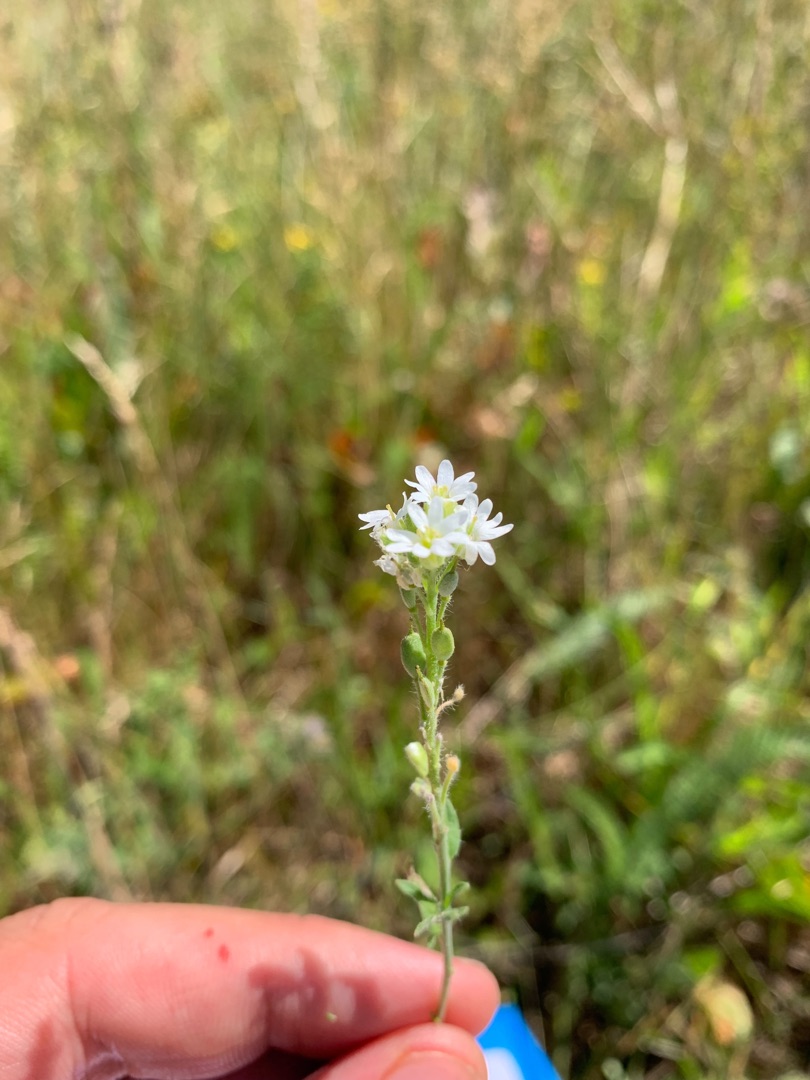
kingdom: Plantae
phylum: Tracheophyta
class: Magnoliopsida
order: Brassicales
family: Brassicaceae
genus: Berteroa
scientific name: Berteroa incana
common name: Kløvplade
